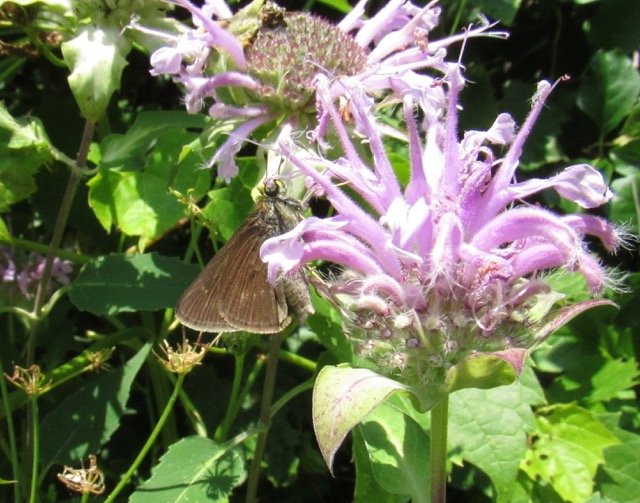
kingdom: Animalia
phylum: Arthropoda
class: Insecta
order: Lepidoptera
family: Hesperiidae
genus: Polites
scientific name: Polites egeremet
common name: Northern Broken-Dash
